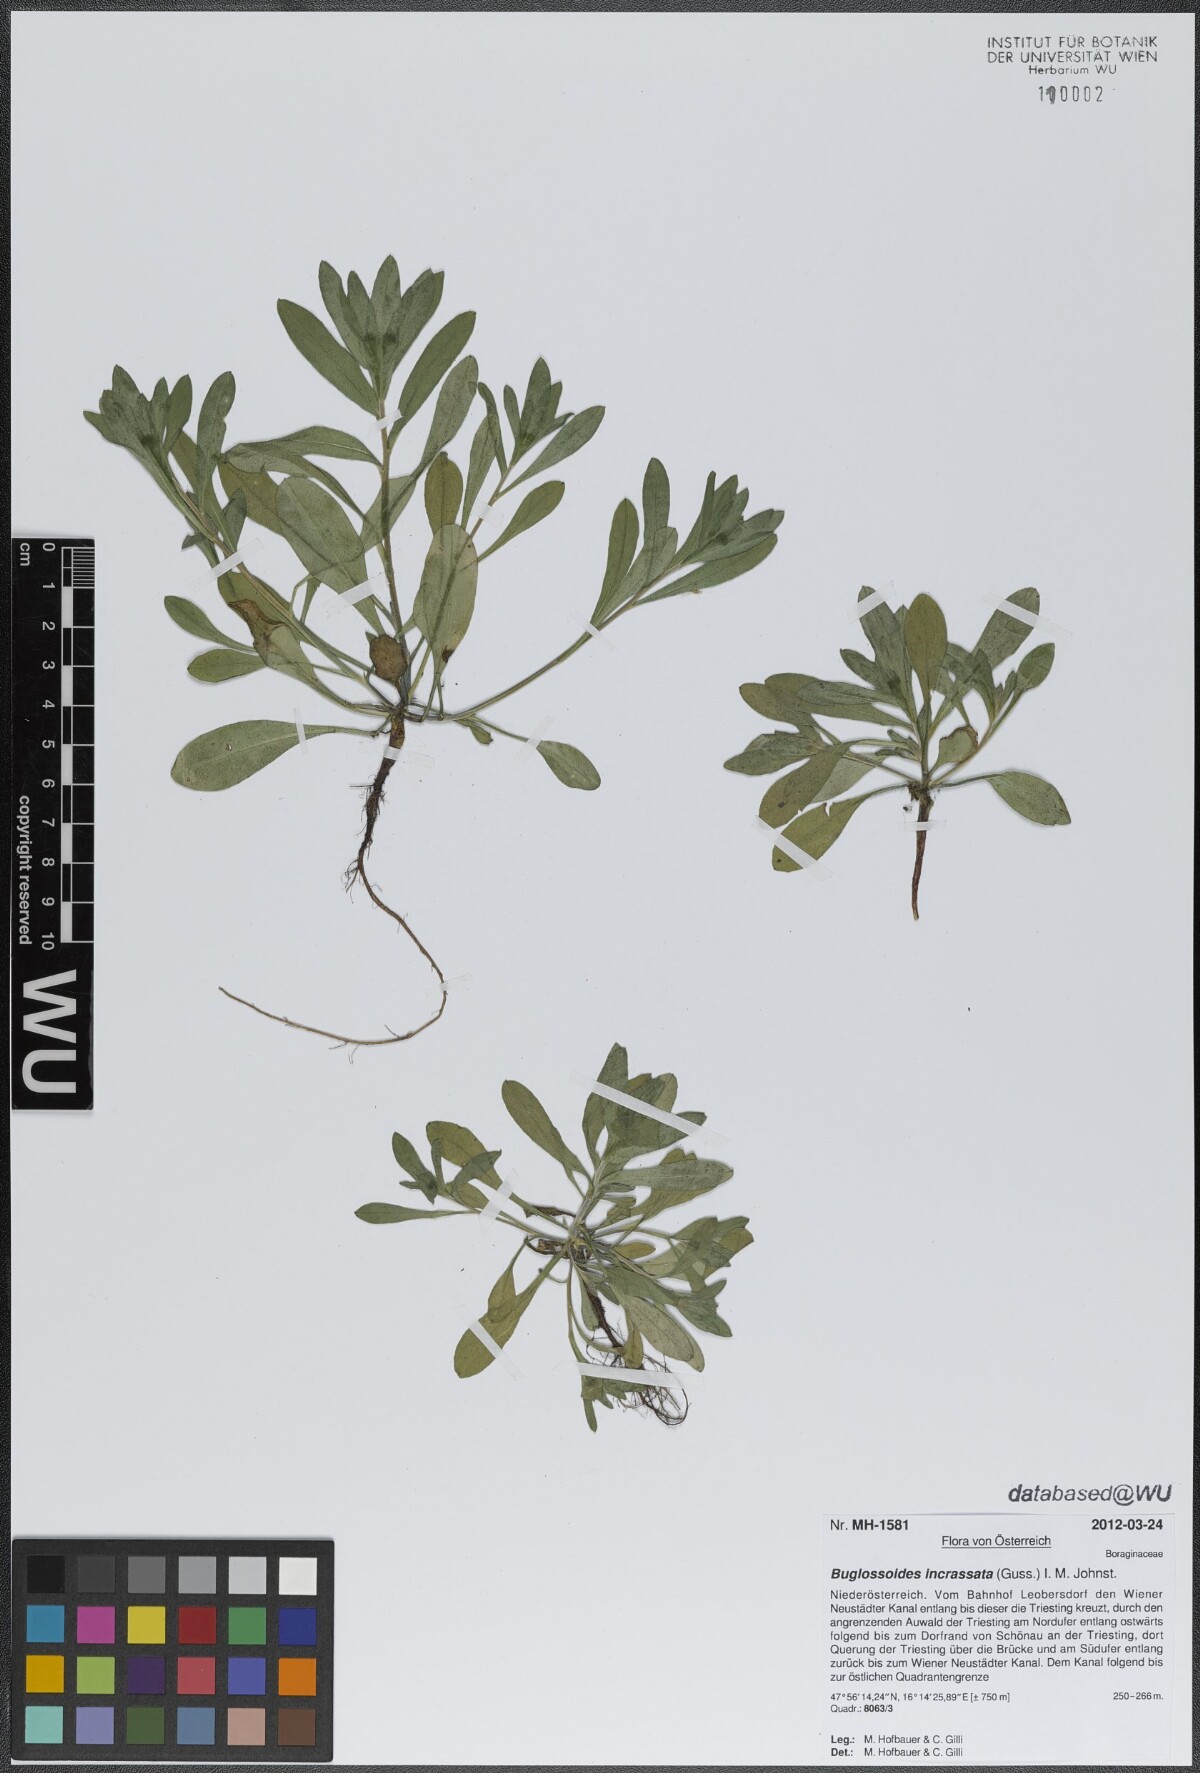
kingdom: Plantae
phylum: Tracheophyta
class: Magnoliopsida
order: Boraginales
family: Boraginaceae
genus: Buglossoides
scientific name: Buglossoides incrassata
